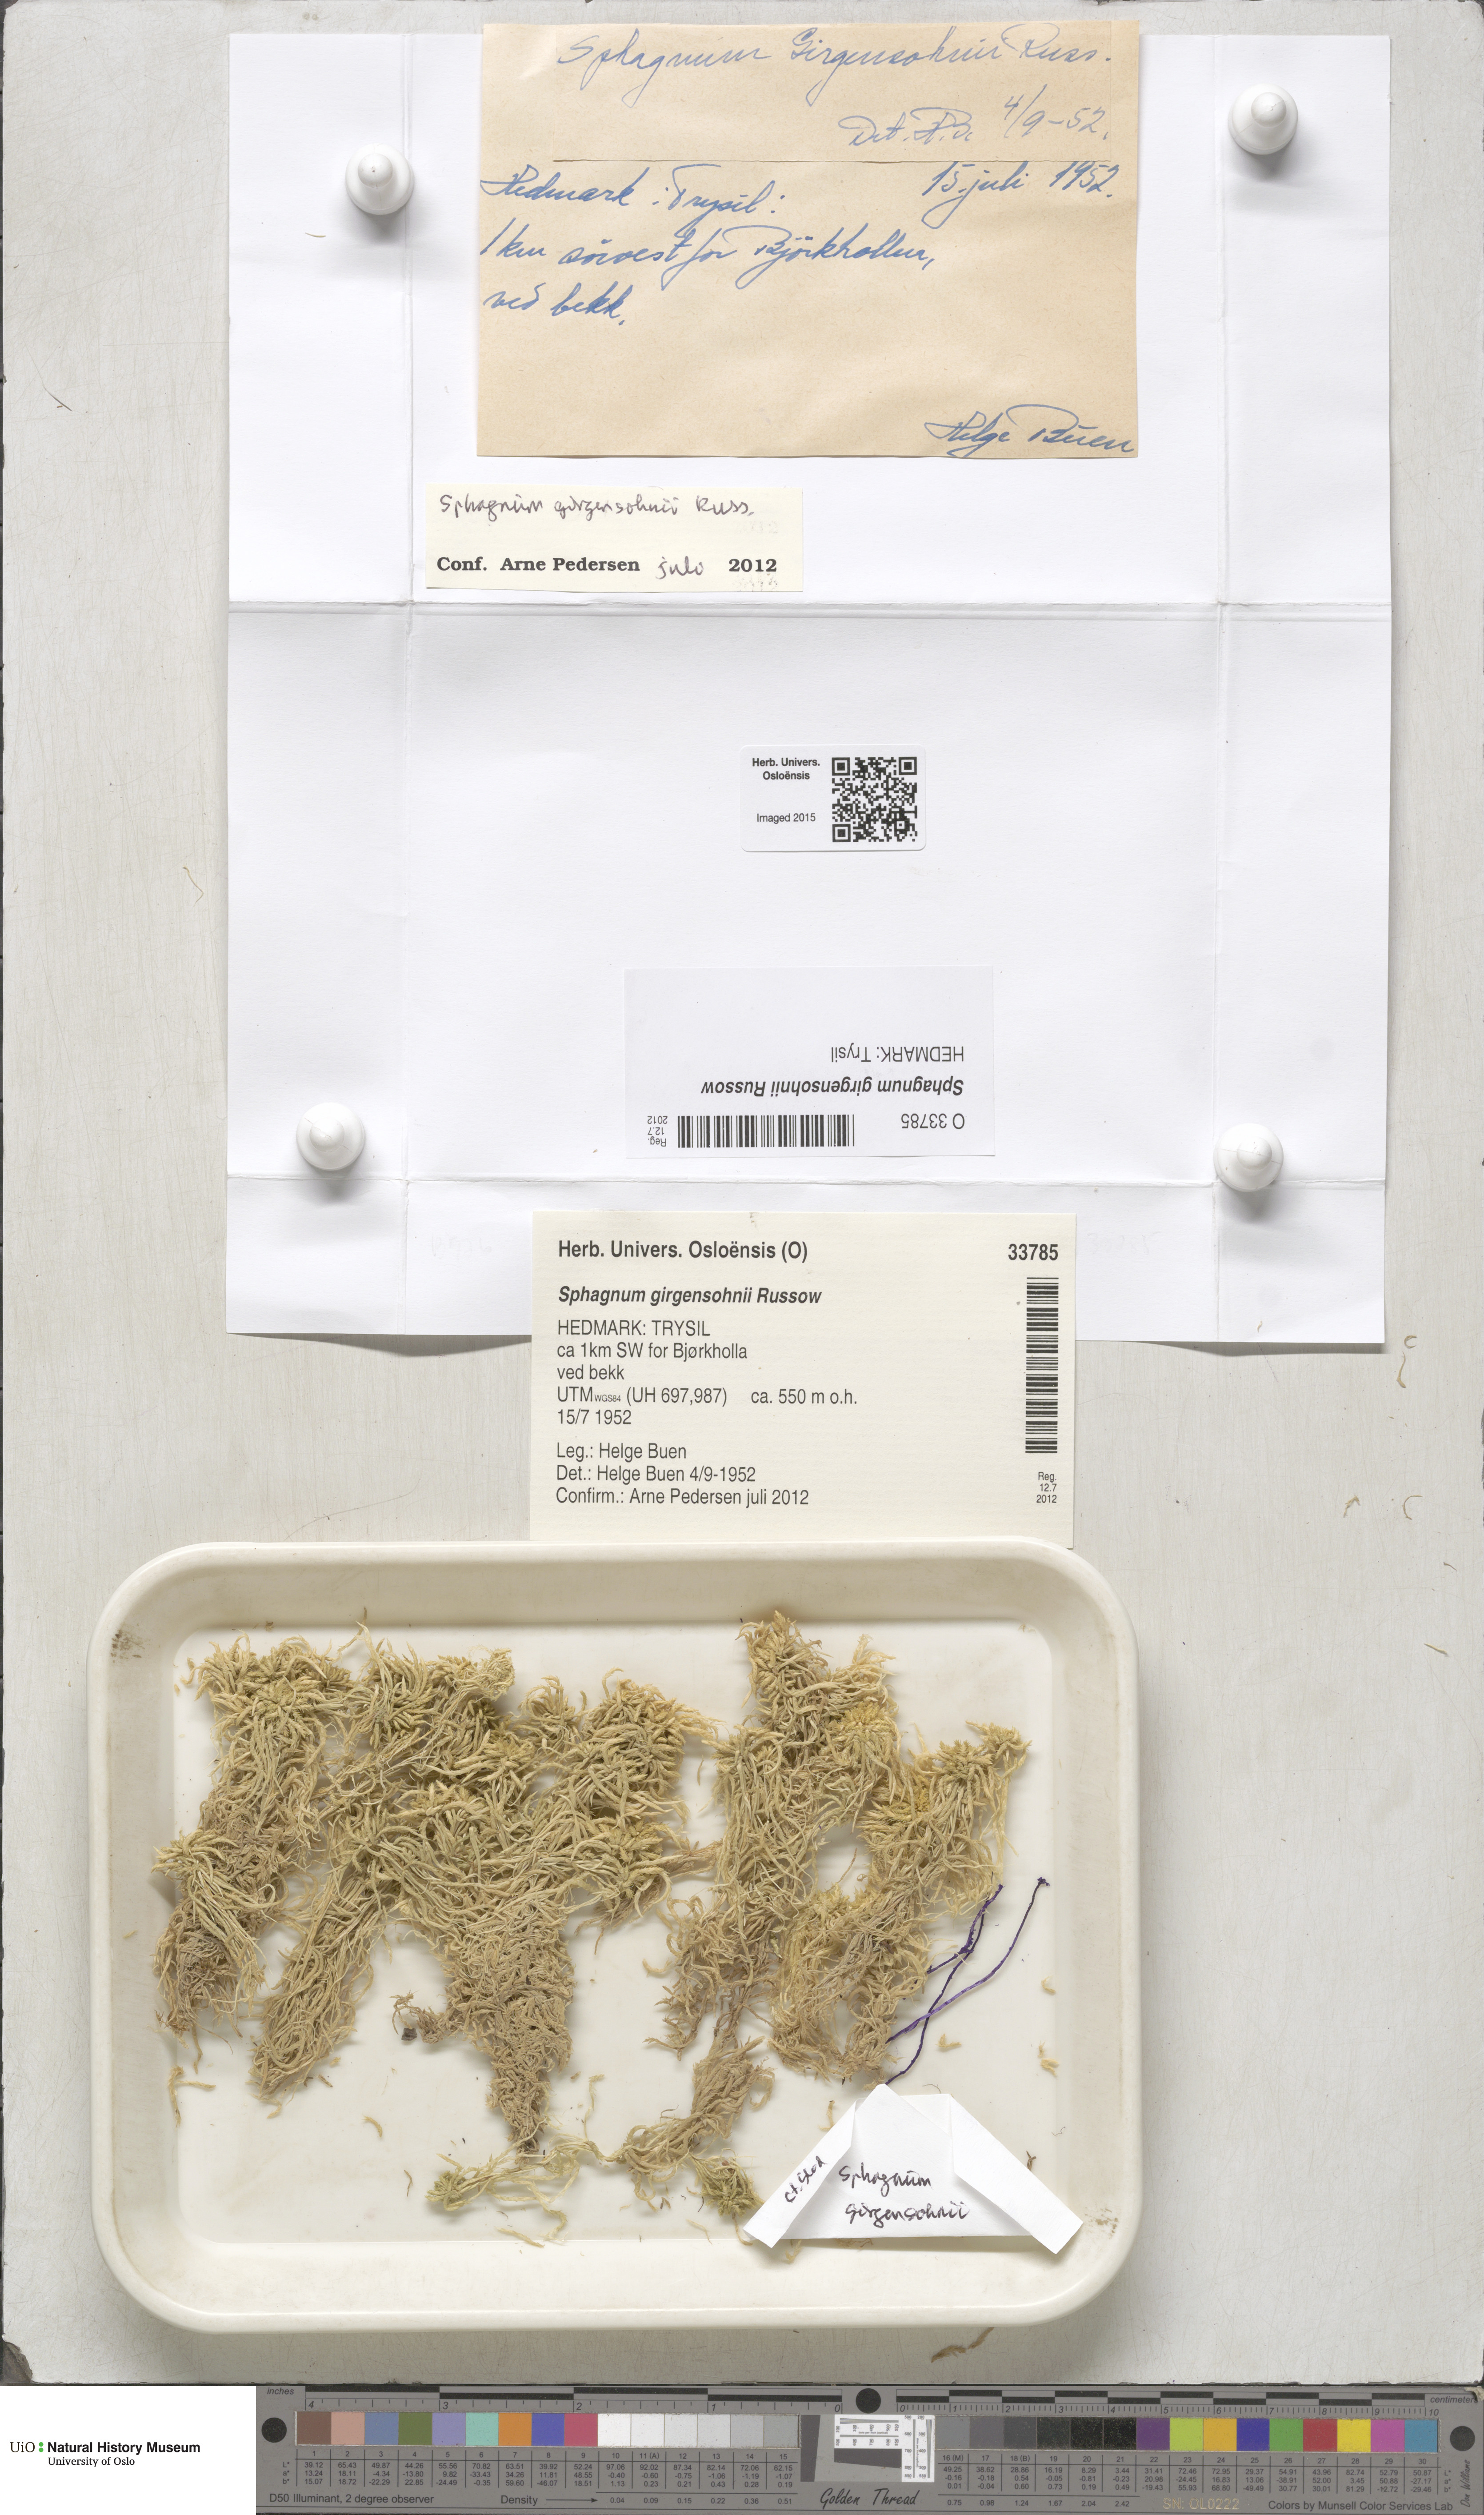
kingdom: Plantae
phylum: Bryophyta
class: Sphagnopsida
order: Sphagnales
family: Sphagnaceae
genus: Sphagnum
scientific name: Sphagnum girgensohnii
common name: Girgensohn's peat moss
